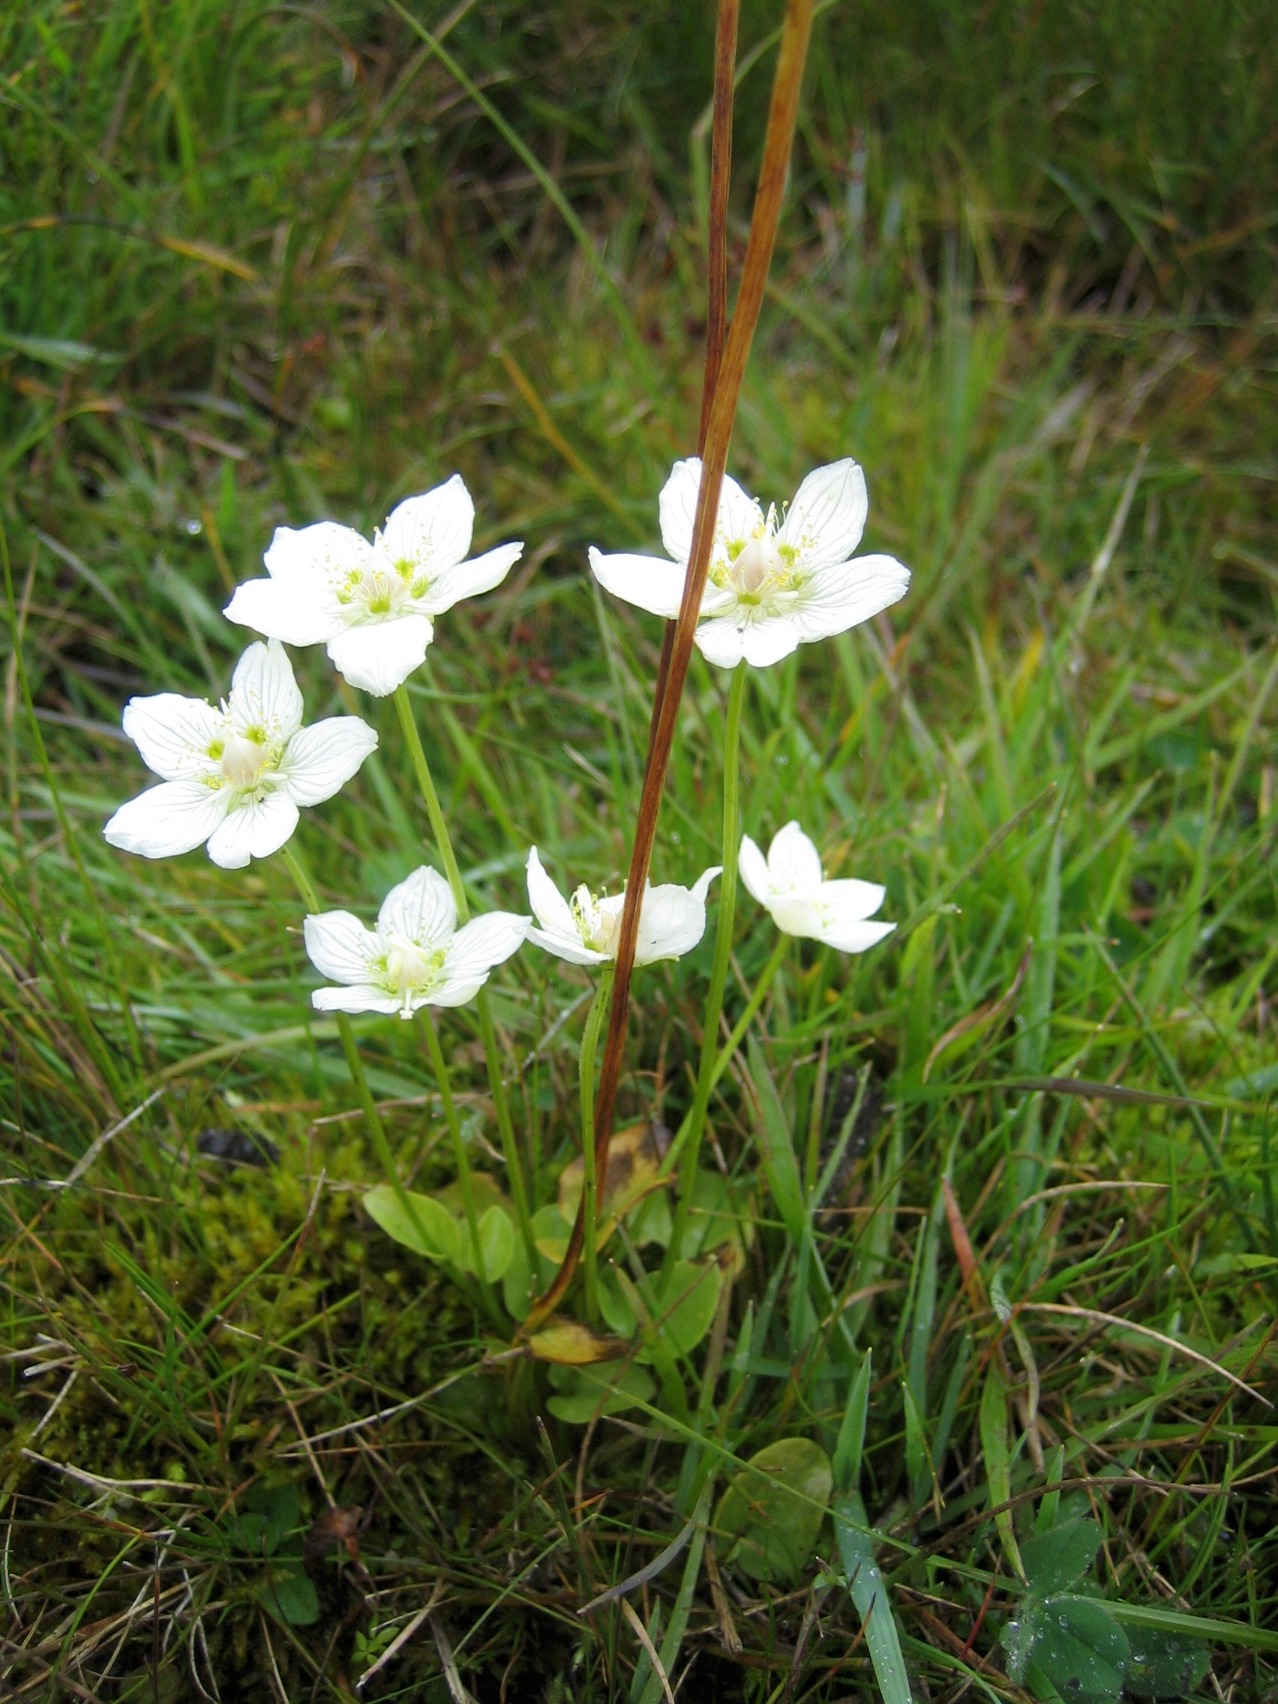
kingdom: Plantae
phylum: Tracheophyta
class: Magnoliopsida
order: Celastrales
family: Parnassiaceae
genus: Parnassia
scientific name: Parnassia palustris
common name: Leverurt
